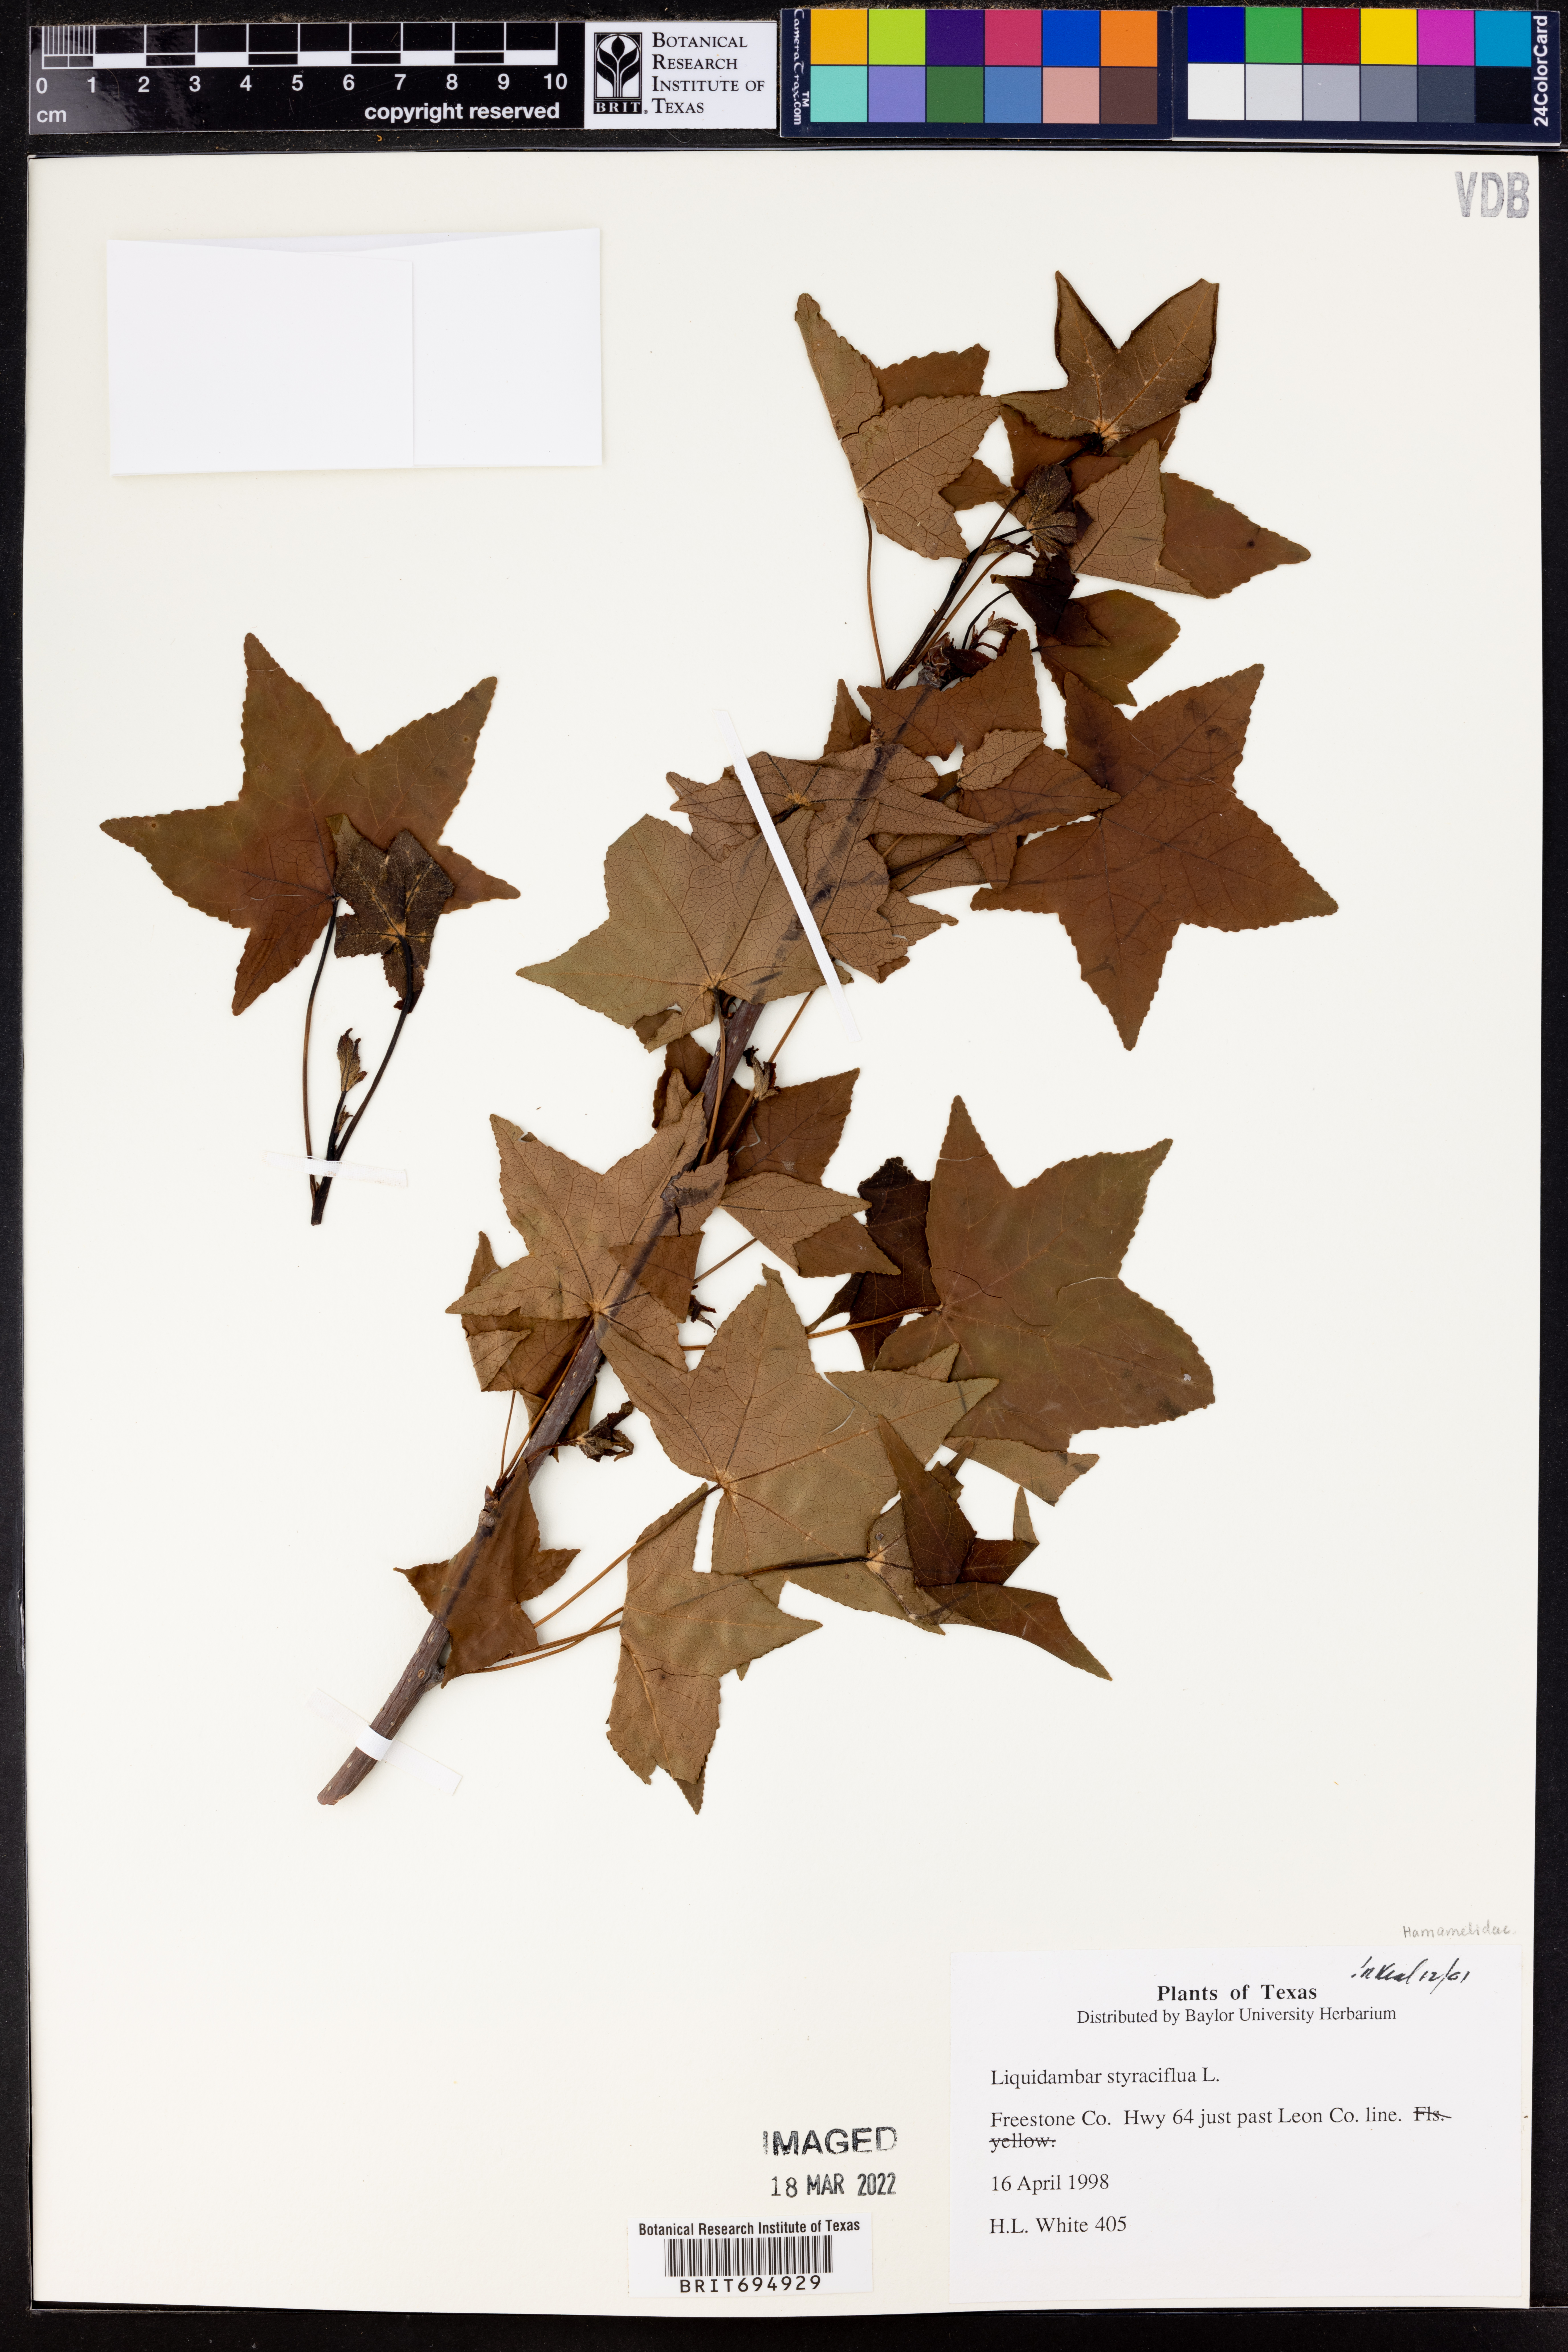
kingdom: Plantae
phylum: Tracheophyta
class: Magnoliopsida
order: Saxifragales
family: Altingiaceae
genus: Liquidambar
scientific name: Liquidambar styraciflua
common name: Sweet gum
